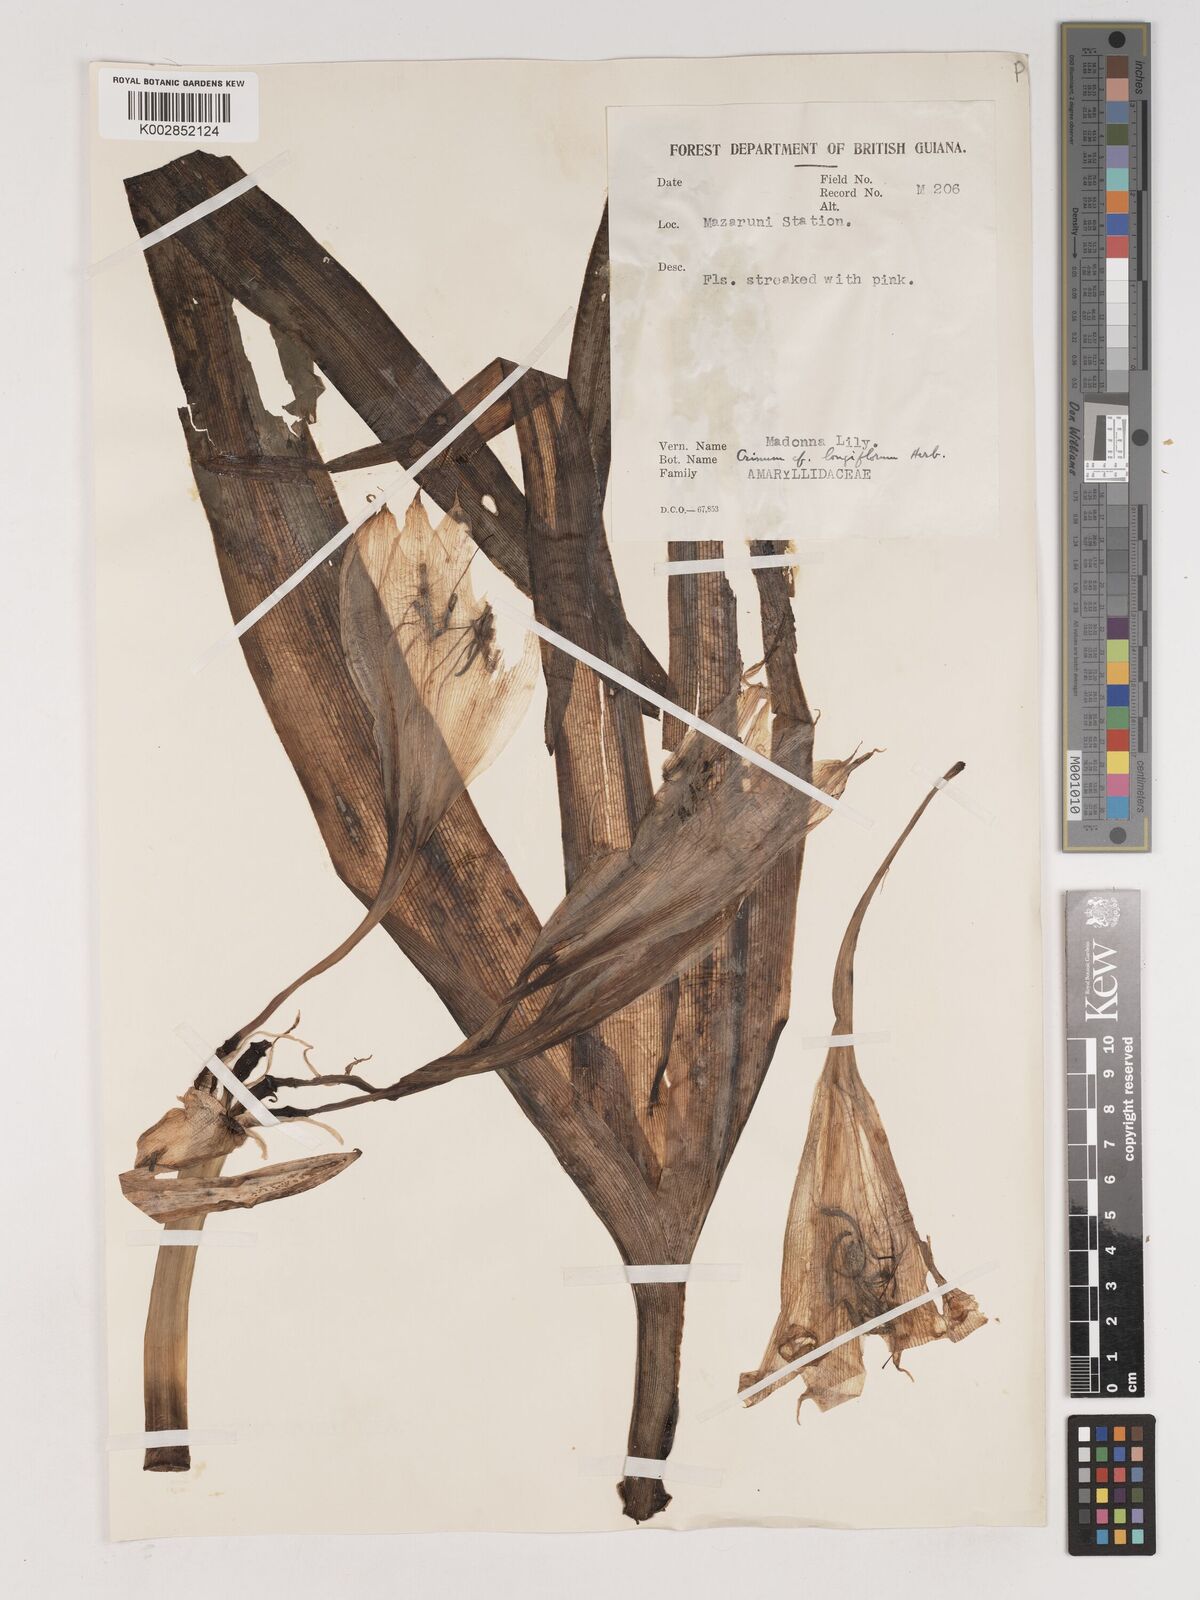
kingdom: Plantae
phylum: Tracheophyta
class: Liliopsida
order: Asparagales
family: Amaryllidaceae
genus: Crinum
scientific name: Crinum americanum
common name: Florida swamp-lily
